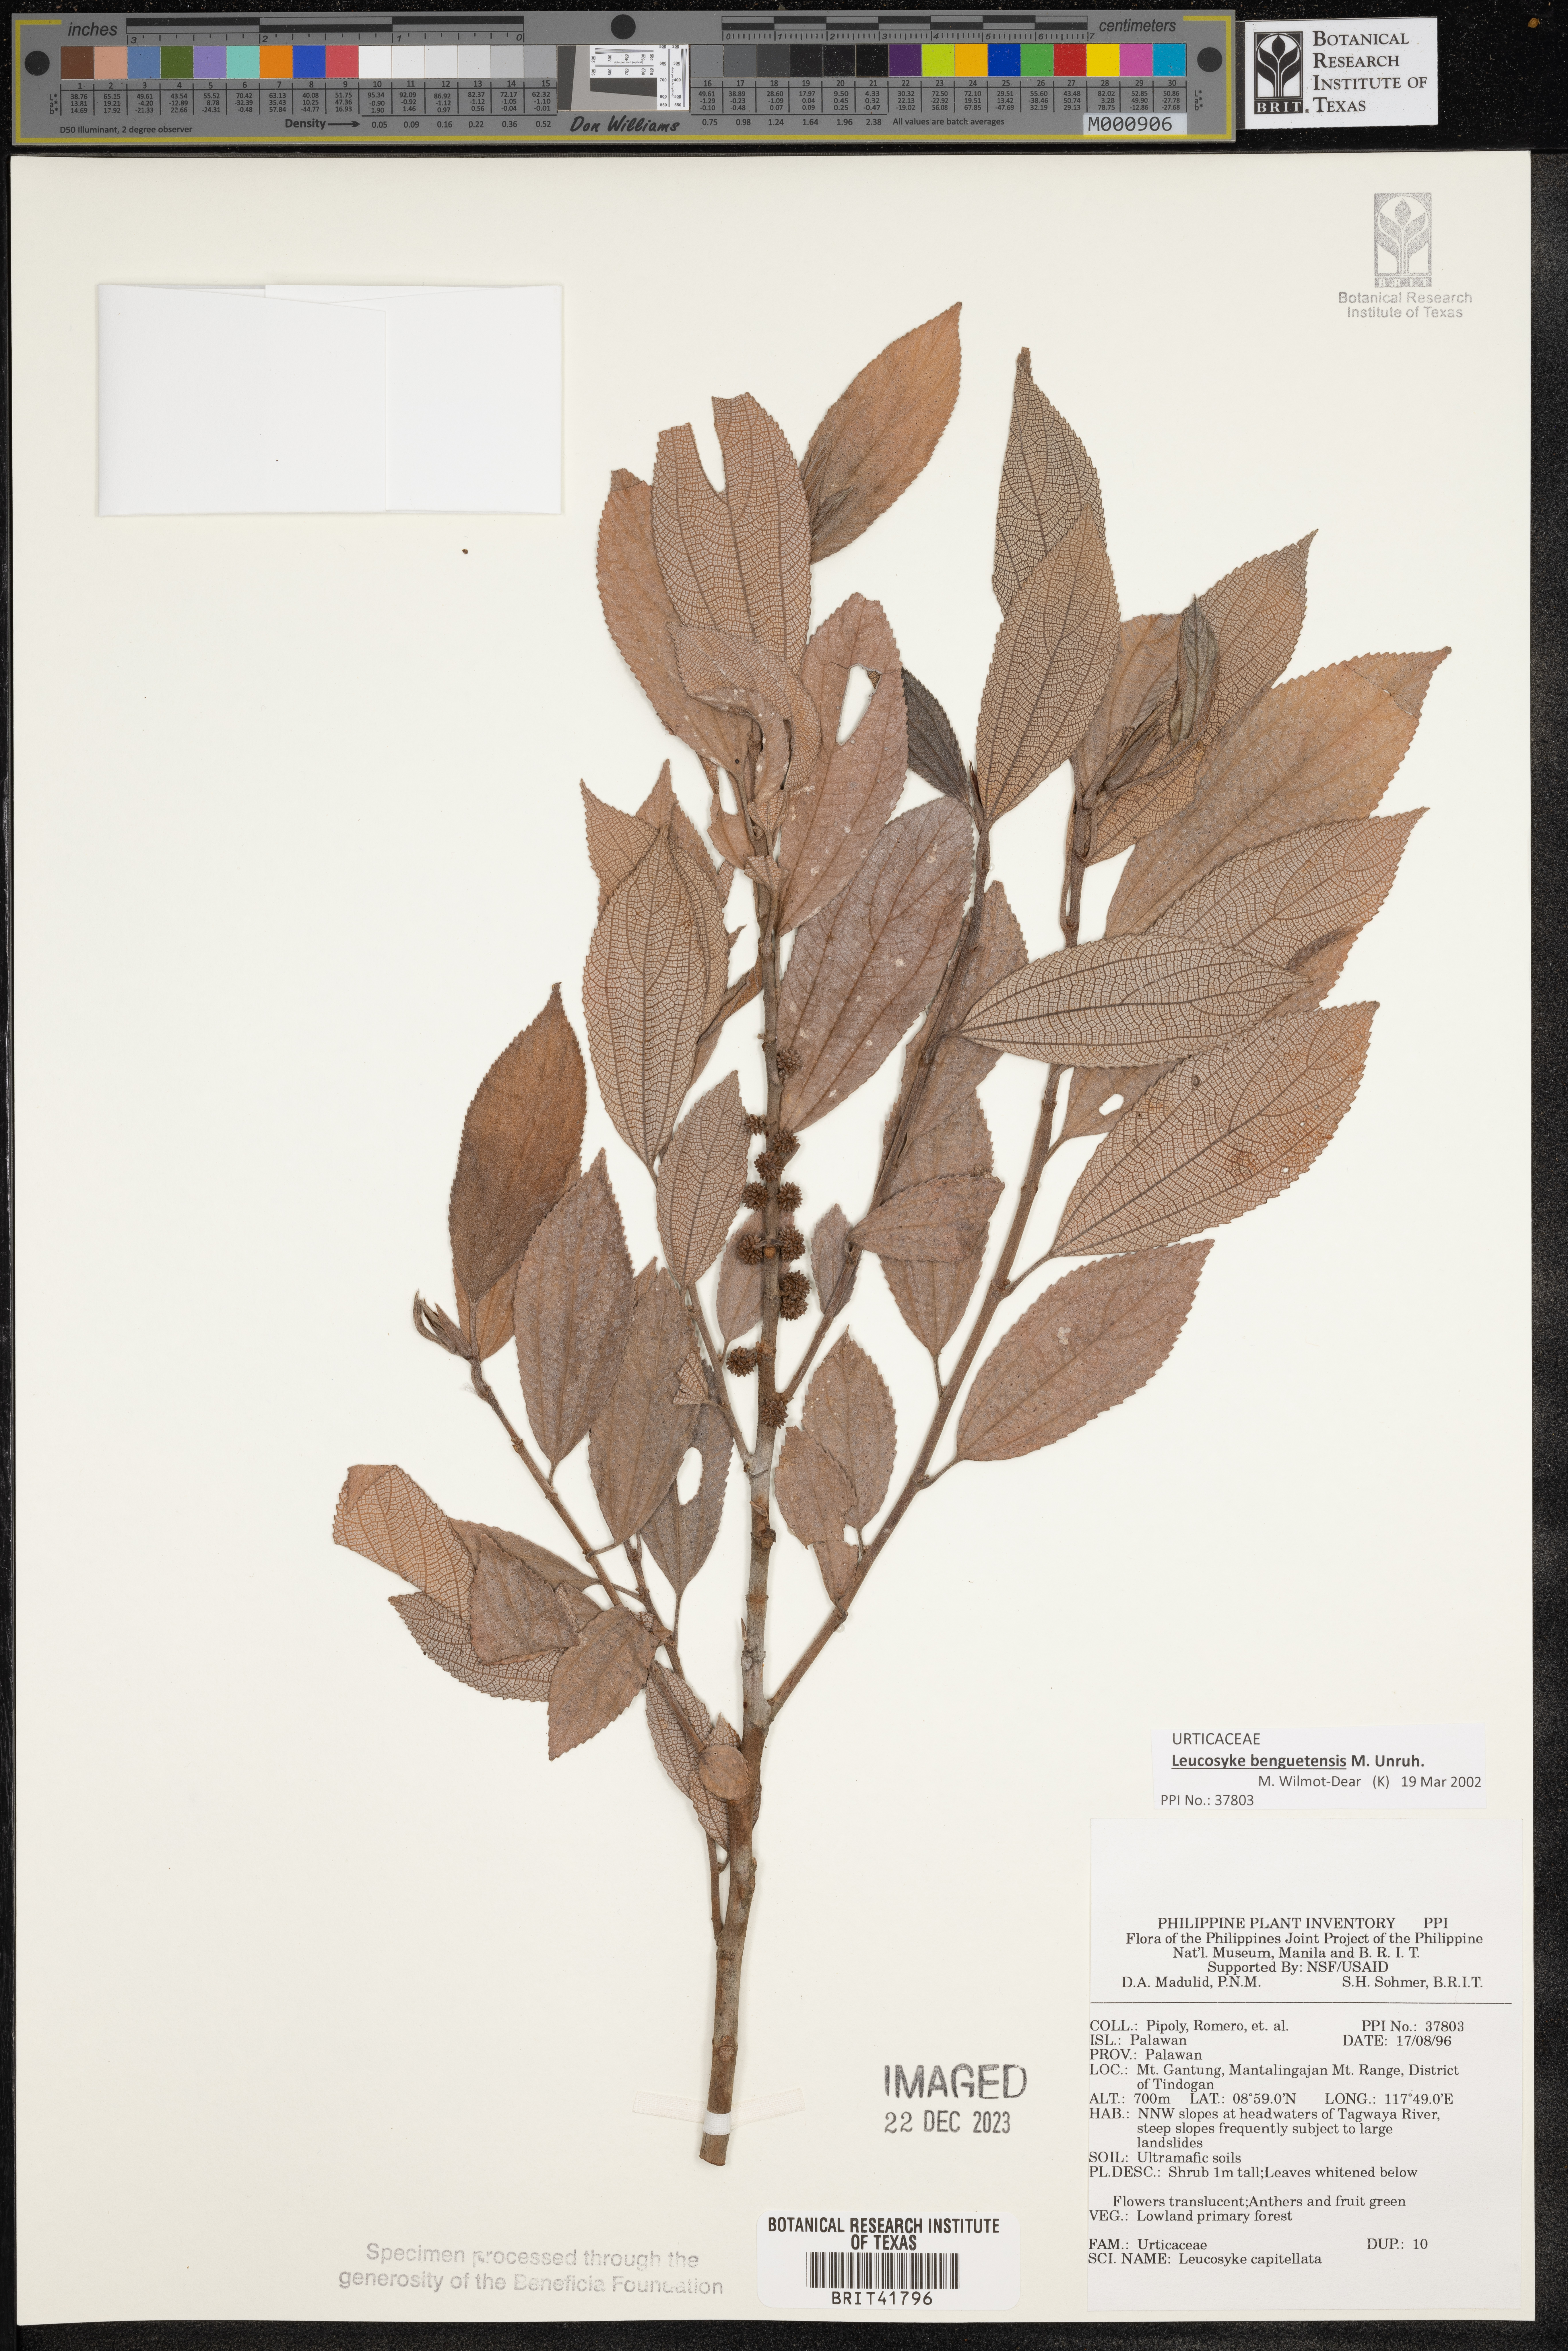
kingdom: Plantae
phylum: Tracheophyta
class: Magnoliopsida
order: Rosales
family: Urticaceae
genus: Leucosyke
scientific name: Leucosyke capitellata
